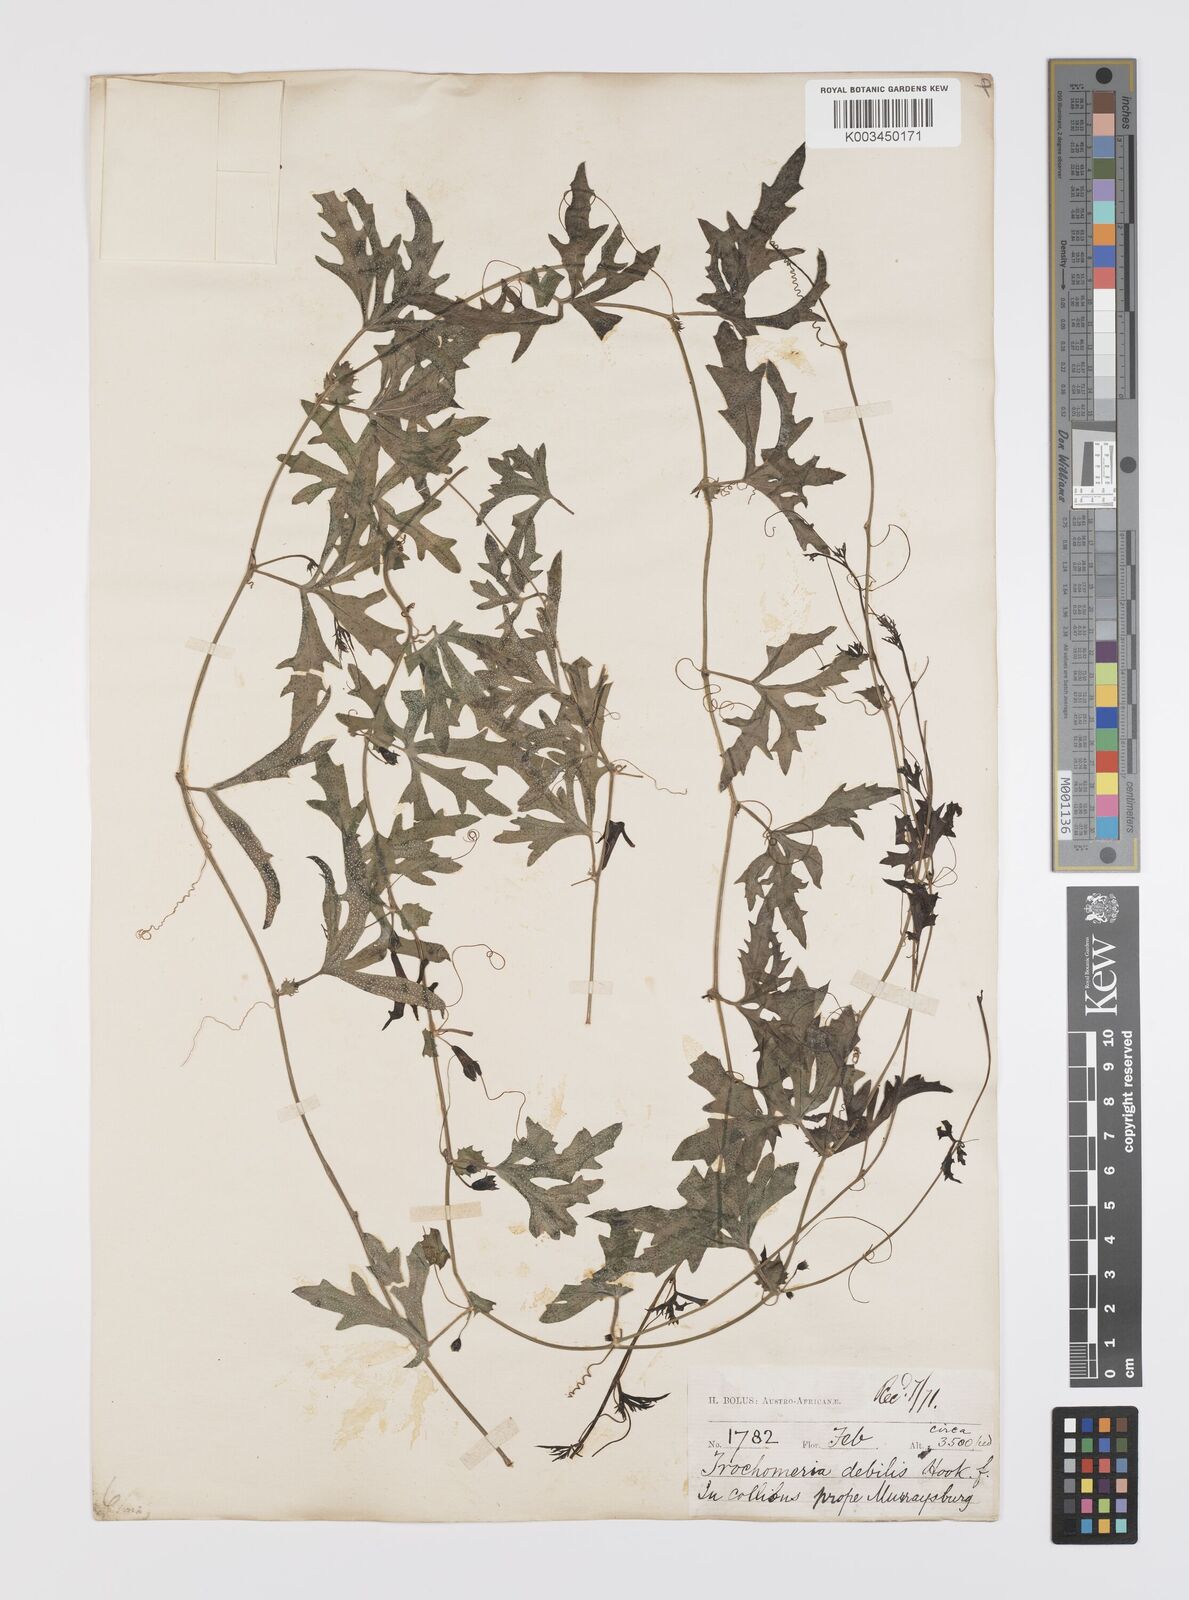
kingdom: Plantae
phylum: Tracheophyta
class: Magnoliopsida
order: Cucurbitales
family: Cucurbitaceae
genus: Trochomeria
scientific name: Trochomeria debilis
